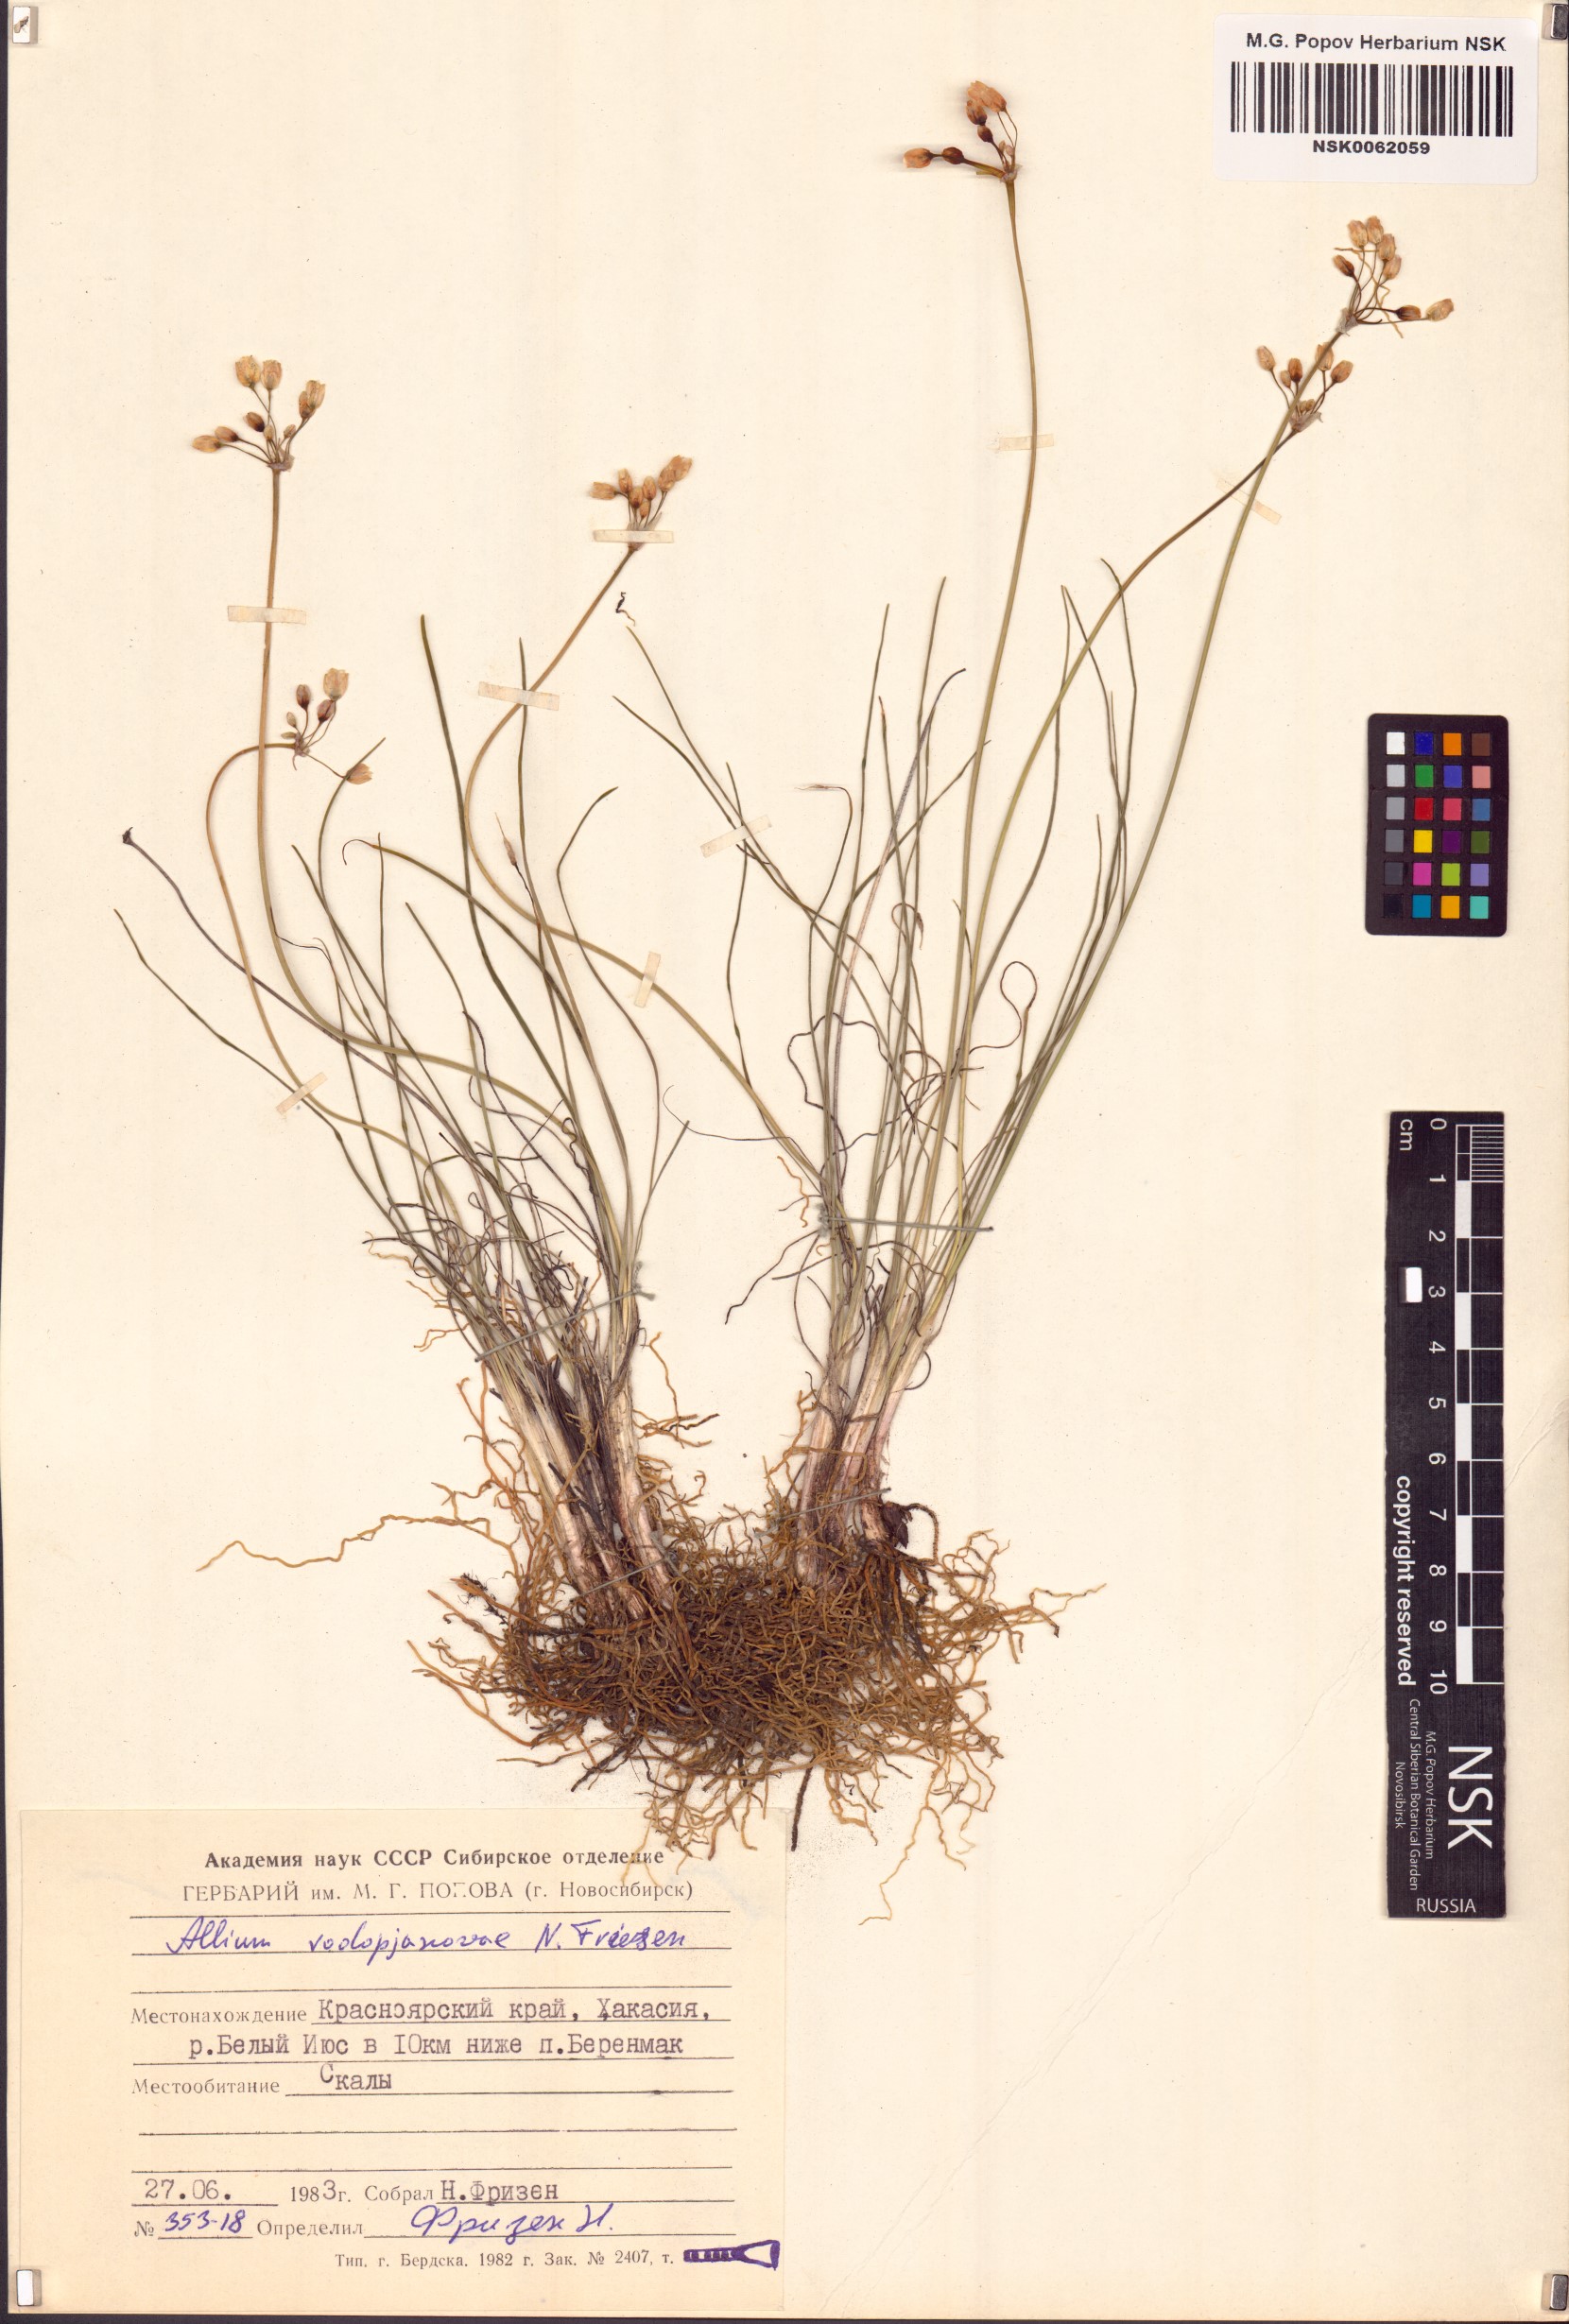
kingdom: Plantae
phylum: Tracheophyta
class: Liliopsida
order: Asparagales
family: Amaryllidaceae
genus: Allium
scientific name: Allium vodopjanovae
